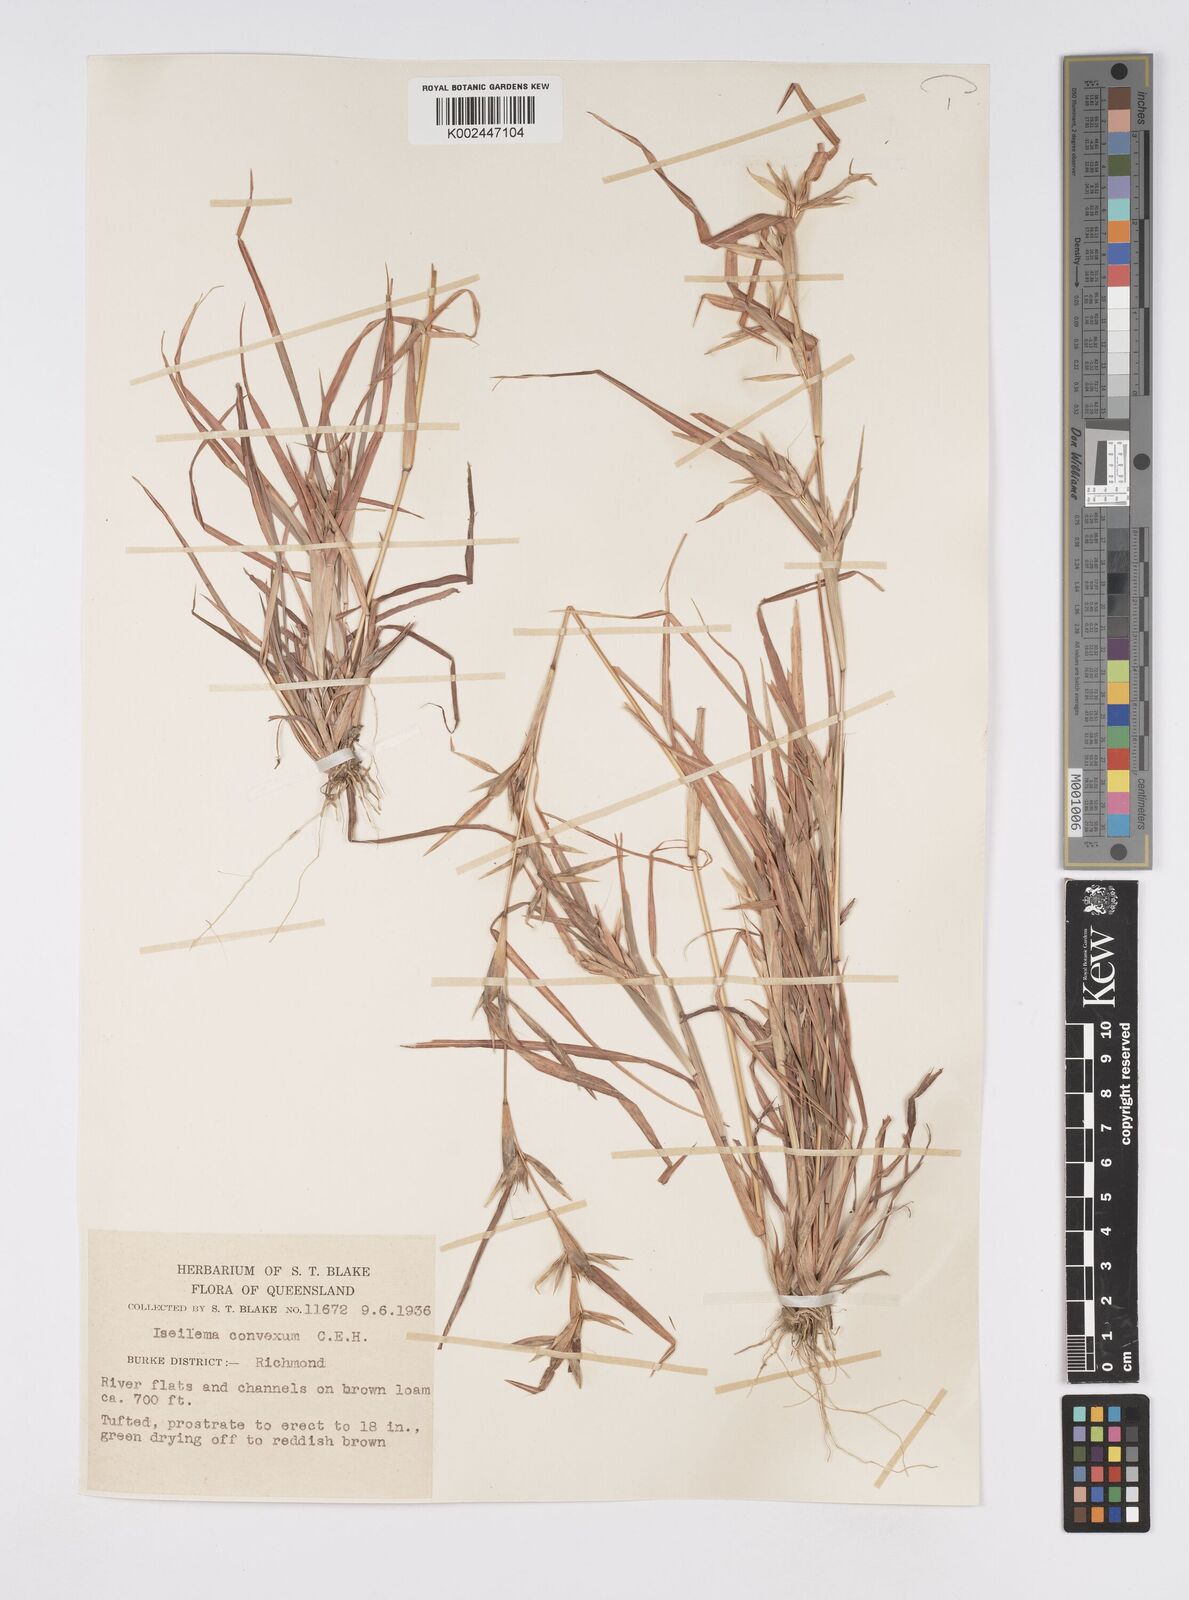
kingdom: Plantae
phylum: Tracheophyta
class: Liliopsida
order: Poales
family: Poaceae
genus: Iseilema
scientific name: Iseilema convexum
